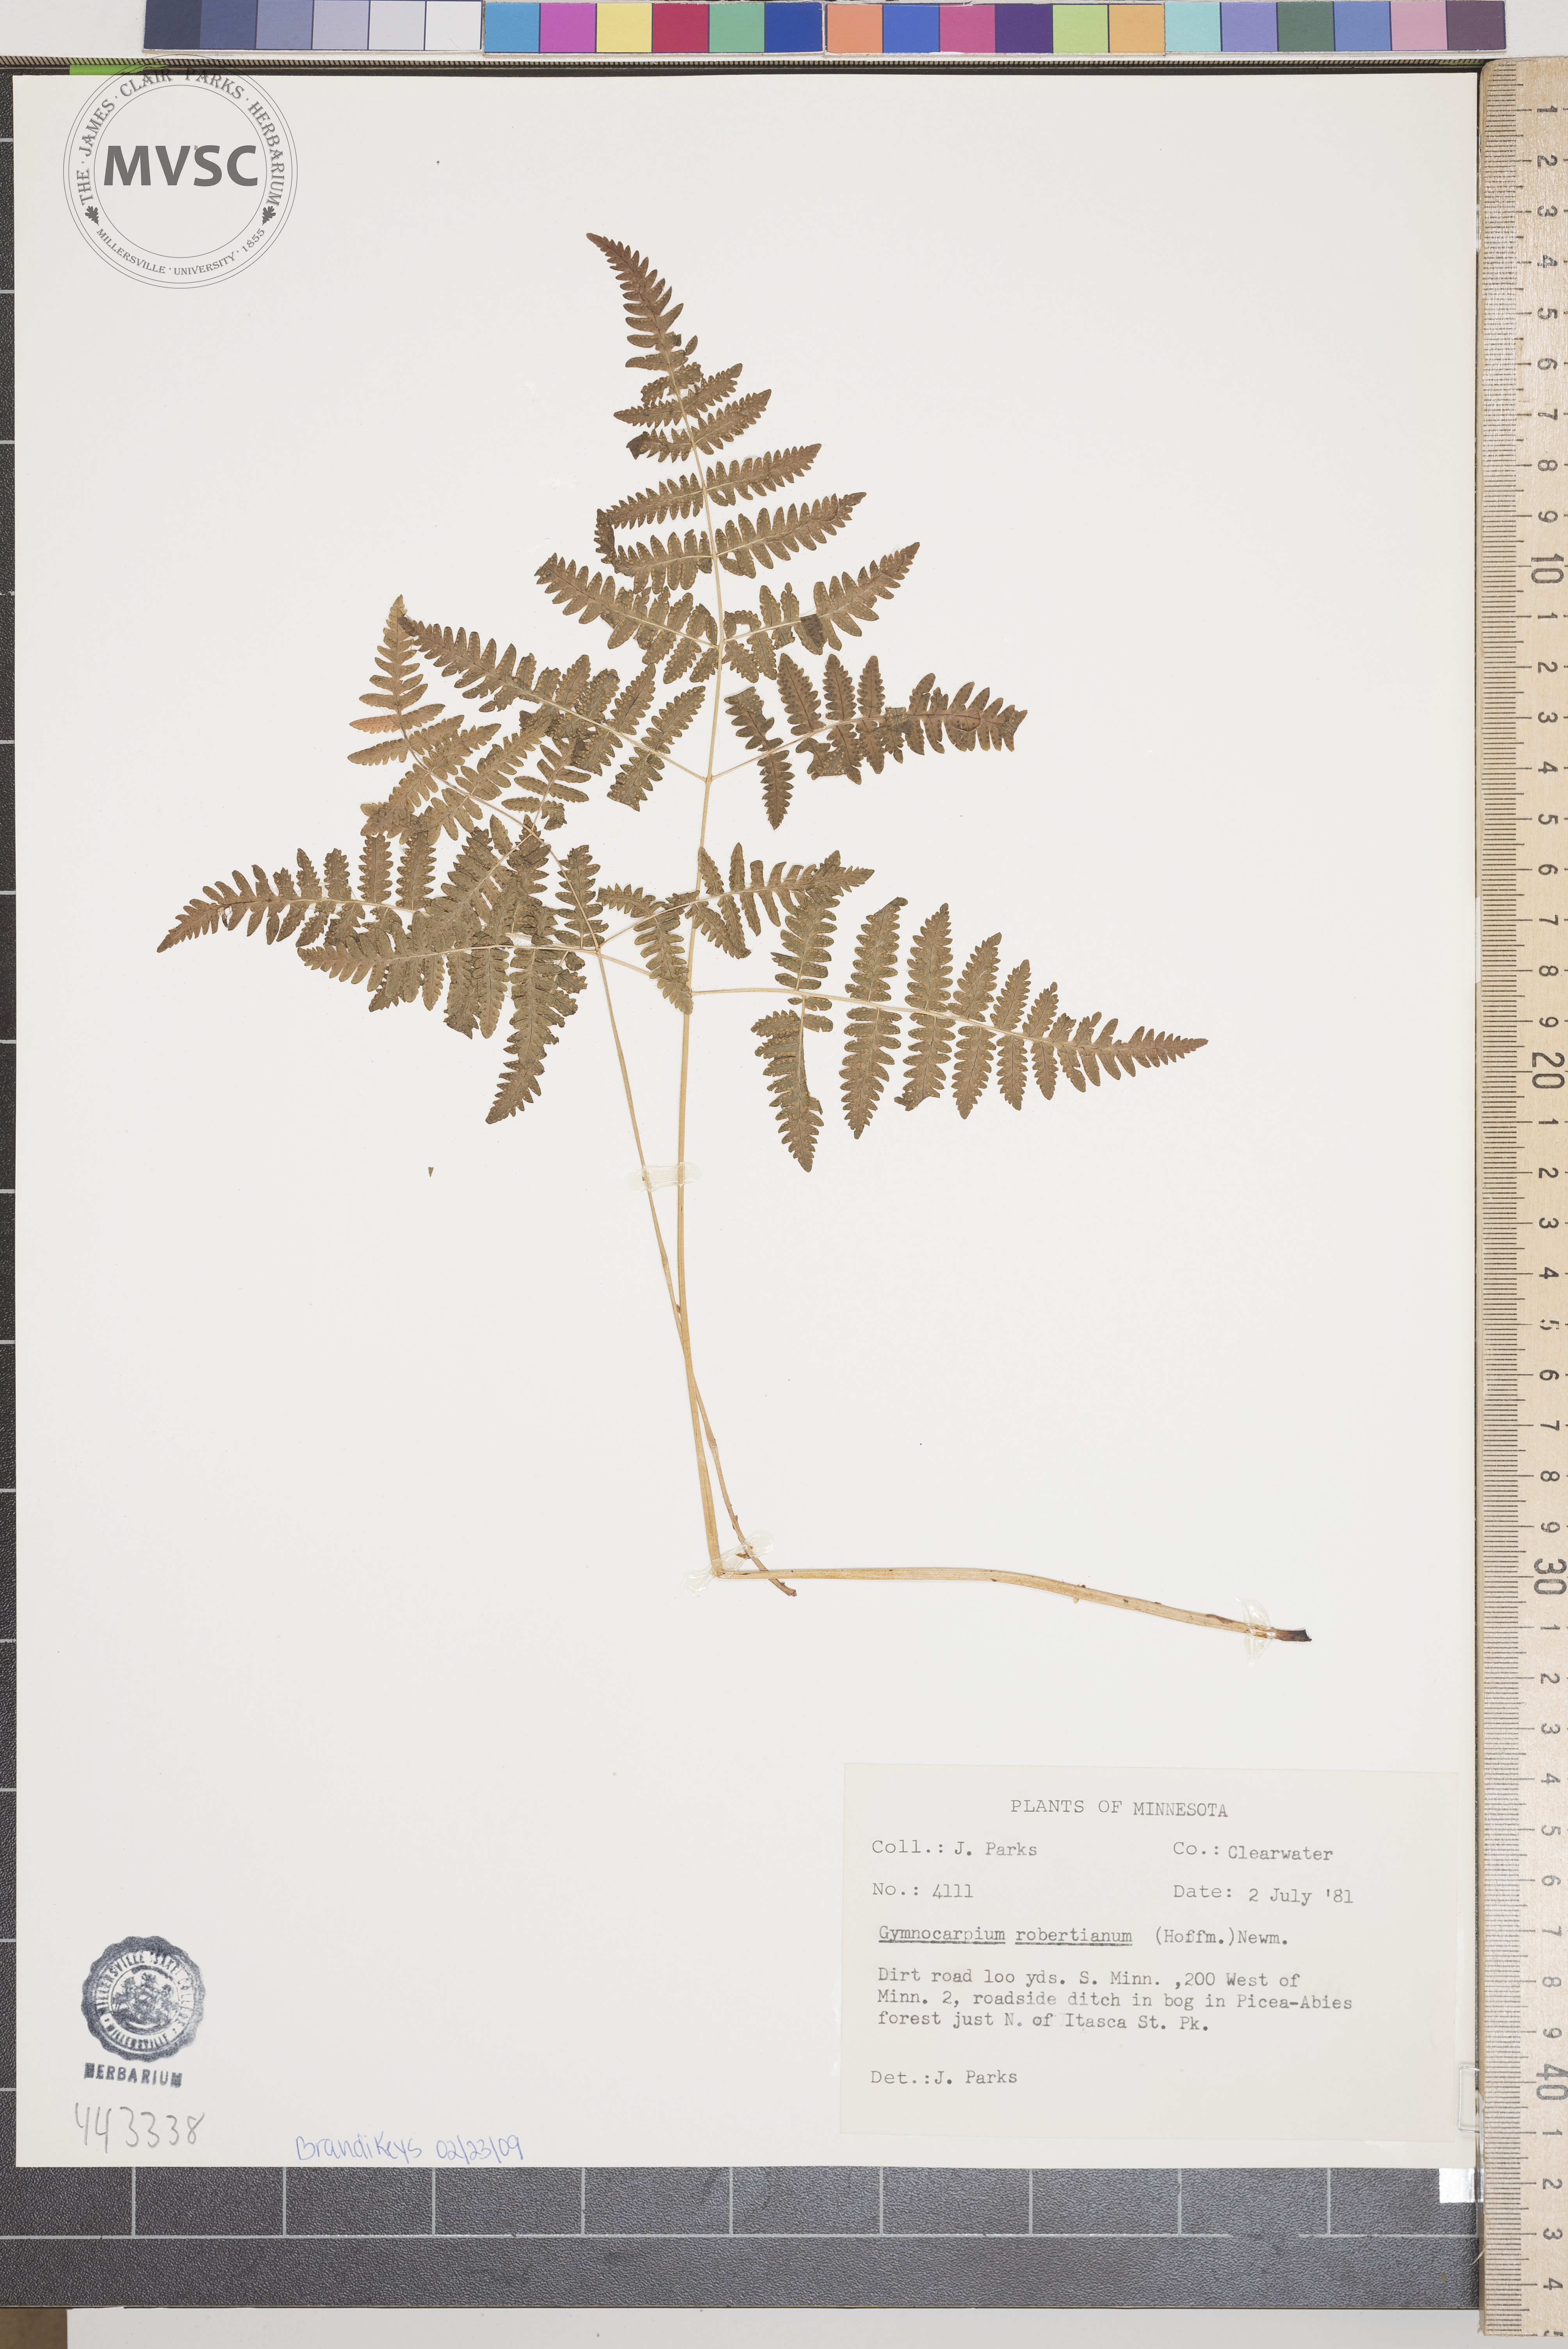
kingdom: Plantae
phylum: Tracheophyta
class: Polypodiopsida
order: Polypodiales
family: Cystopteridaceae
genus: Gymnocarpium
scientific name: Gymnocarpium robertianum
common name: Limestone fern
